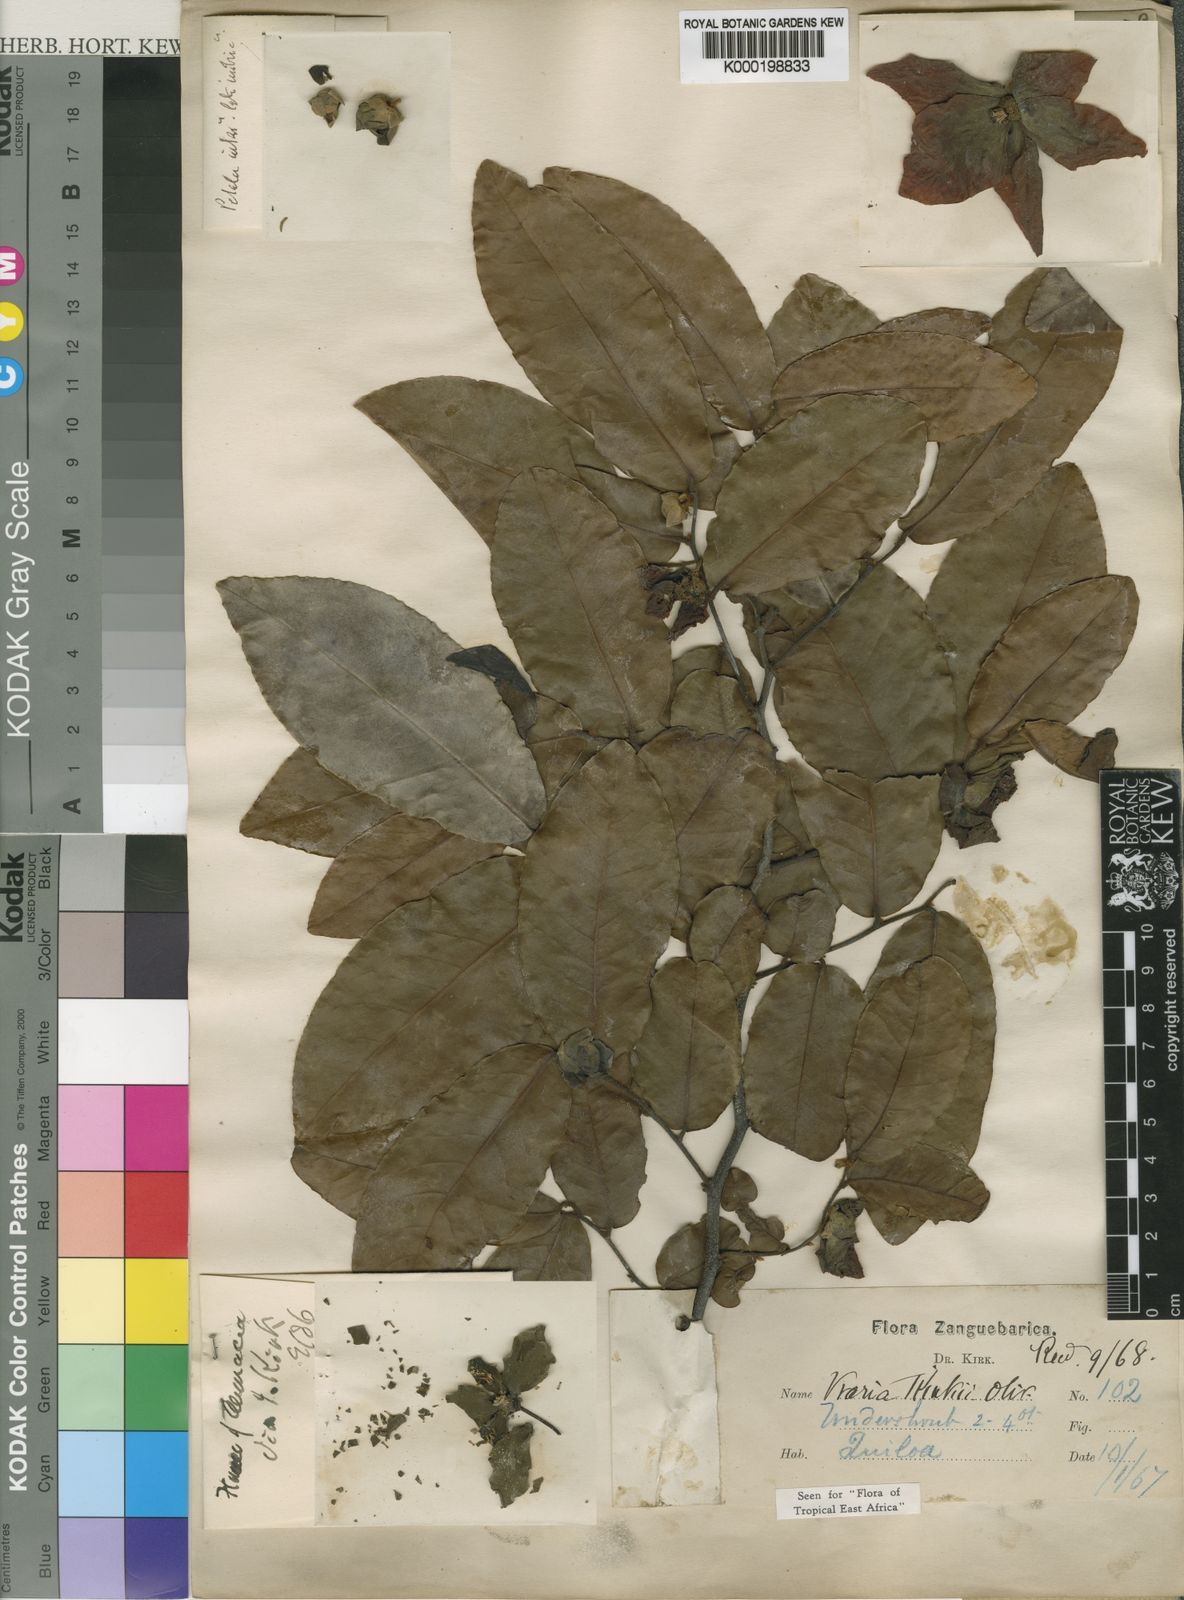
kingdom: Plantae
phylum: Tracheophyta
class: Magnoliopsida
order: Magnoliales
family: Annonaceae
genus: Uvaria
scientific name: Uvaria
